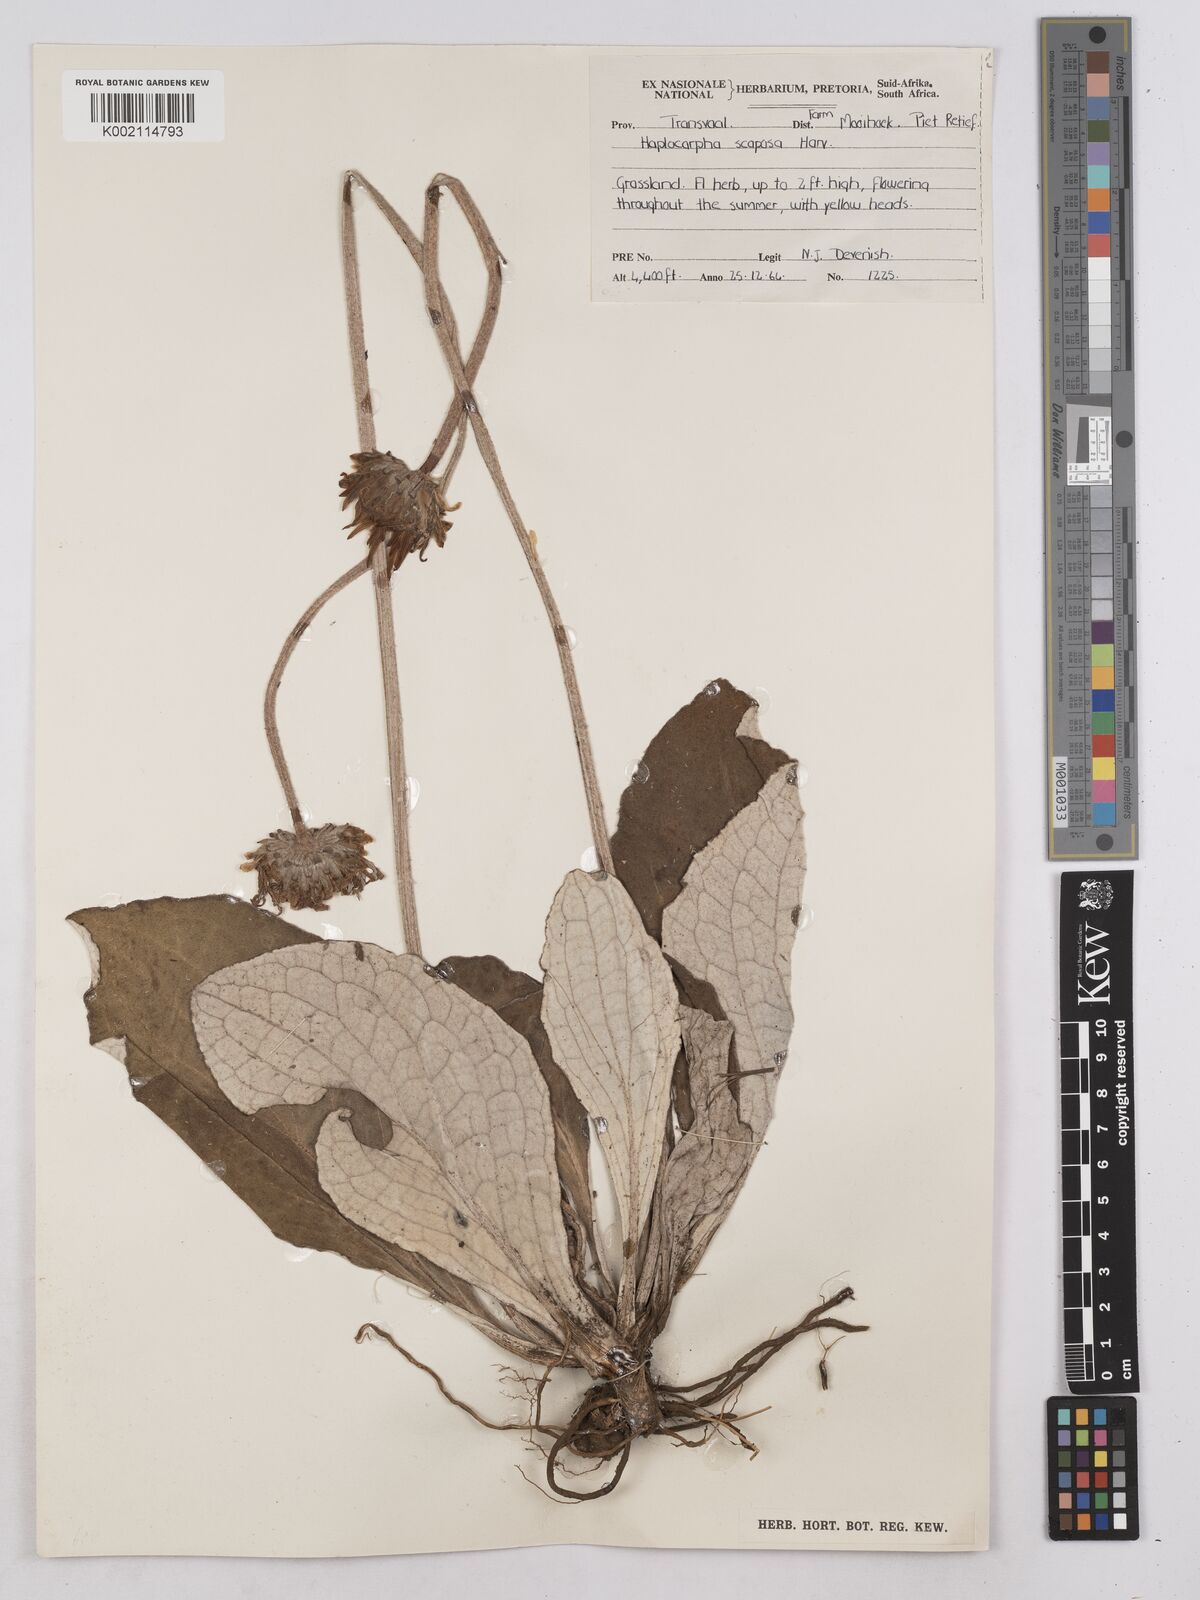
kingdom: Plantae
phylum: Tracheophyta
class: Magnoliopsida
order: Asterales
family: Asteraceae
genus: Haplocarpha
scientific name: Haplocarpha scaposa
